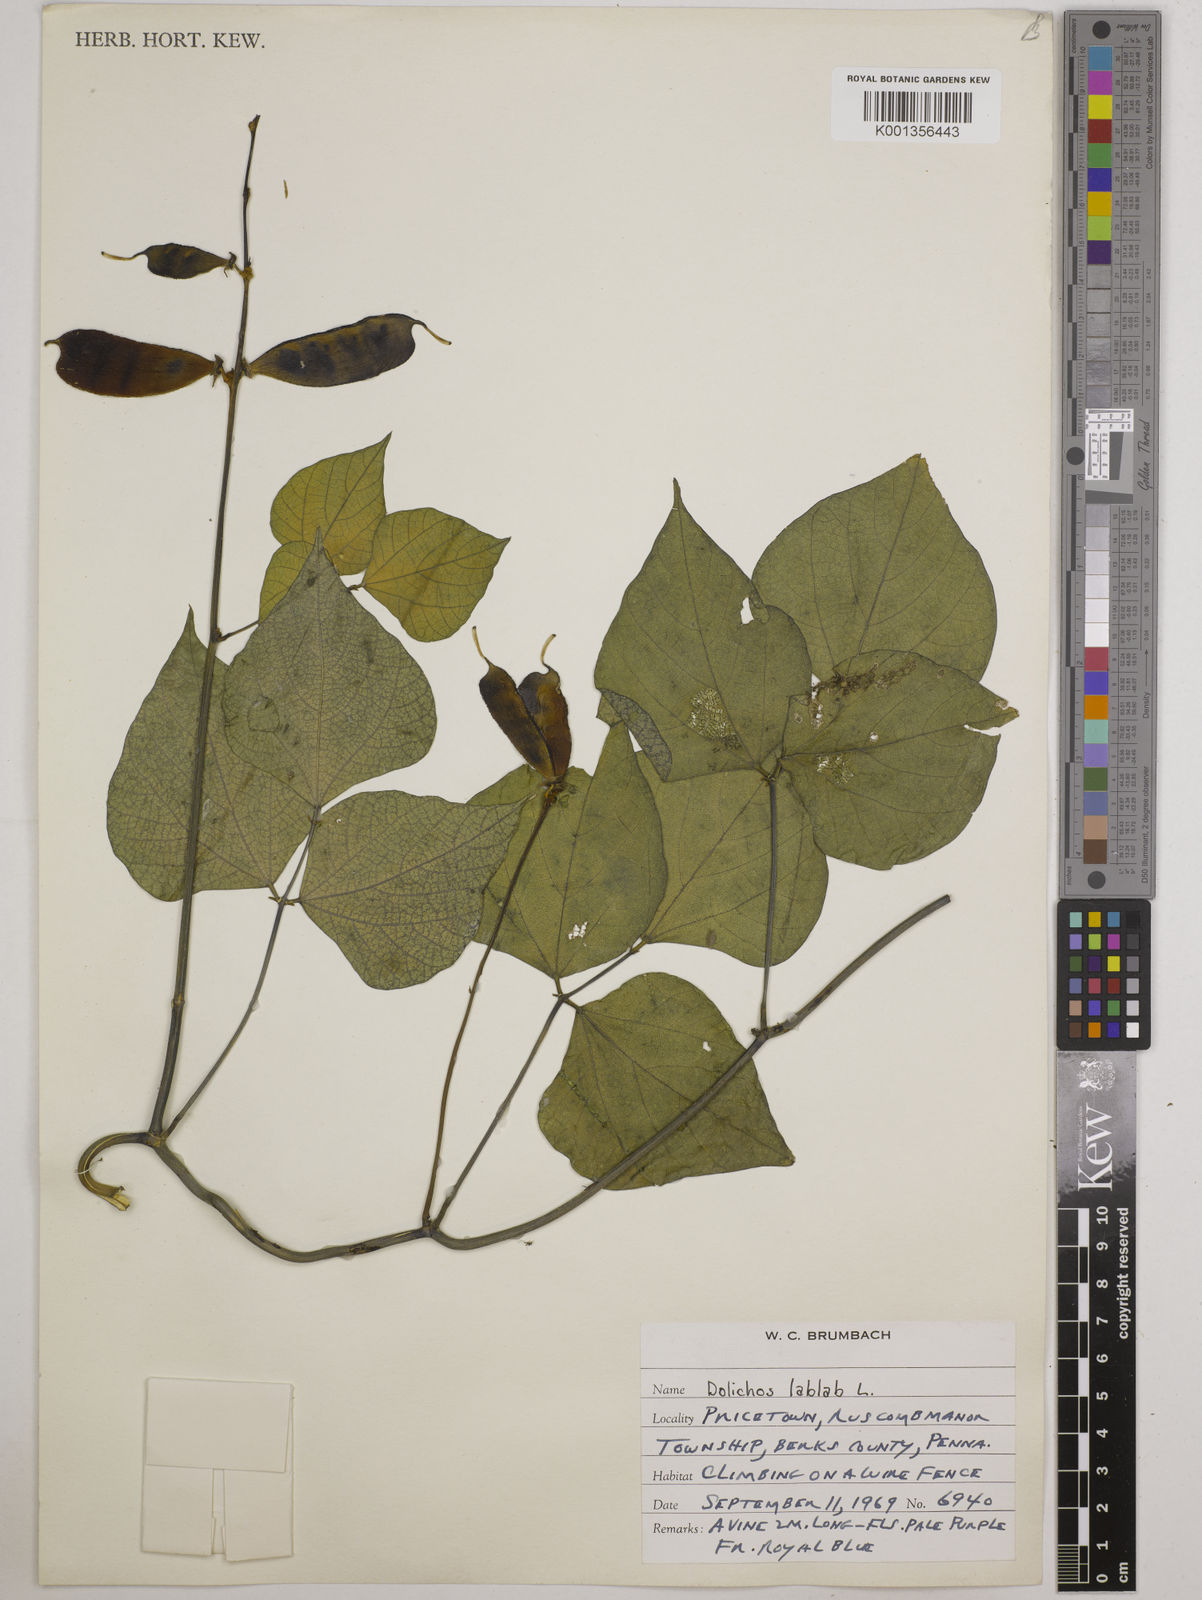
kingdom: Plantae
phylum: Tracheophyta
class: Magnoliopsida
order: Fabales
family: Fabaceae
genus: Lablab
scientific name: Lablab purpureus
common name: Lablab-bean
